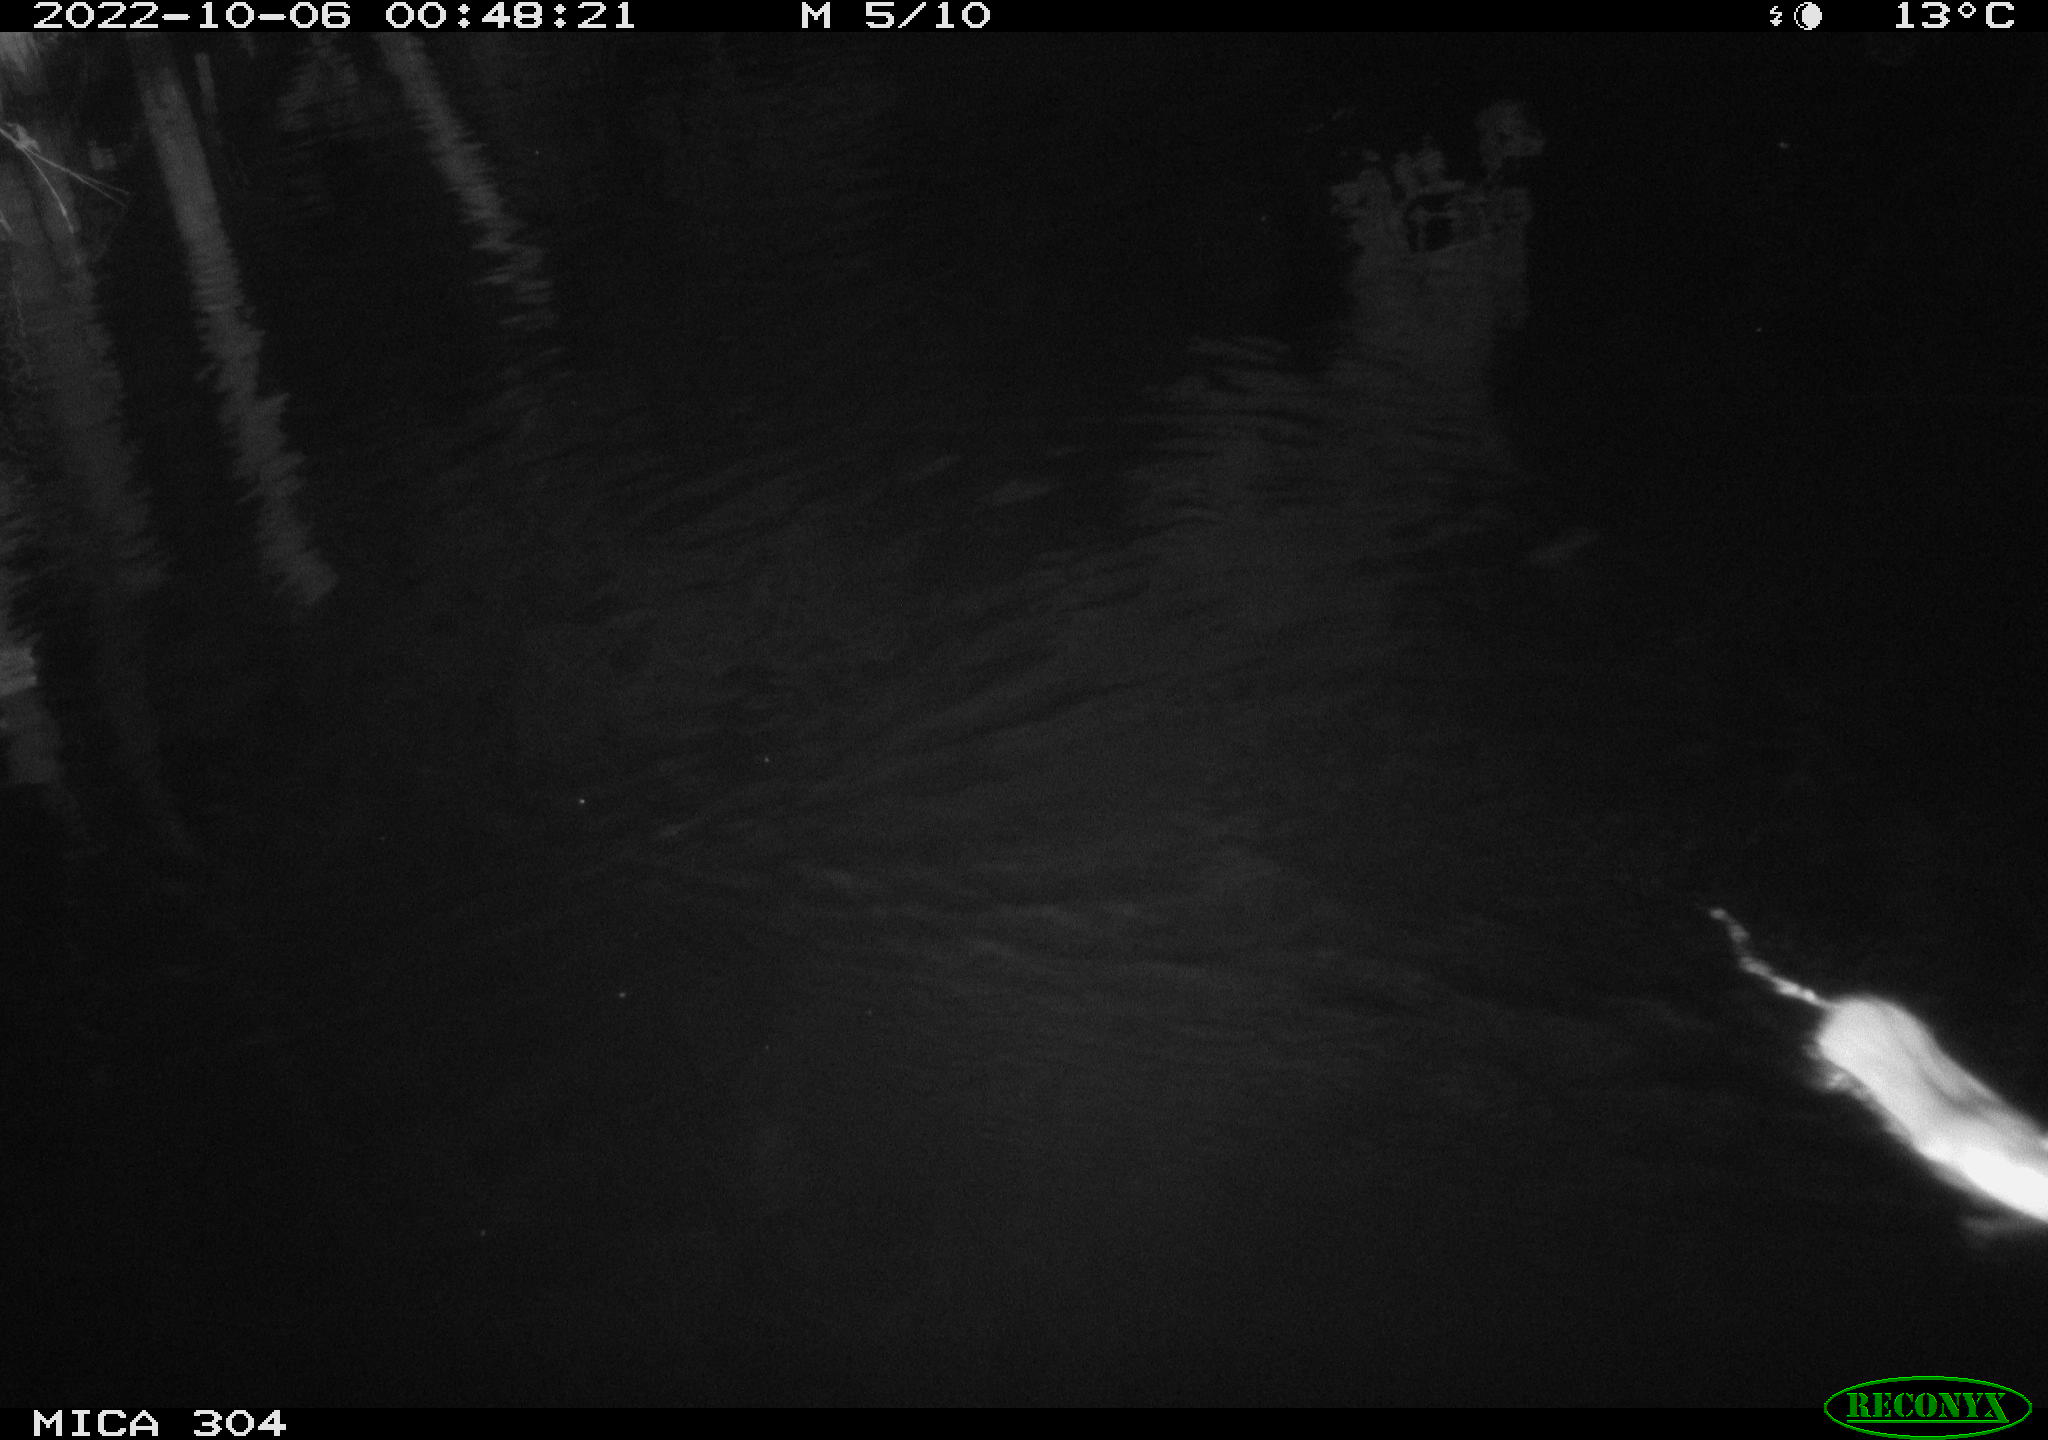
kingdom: Animalia
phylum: Chordata
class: Mammalia
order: Rodentia
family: Muridae
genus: Rattus
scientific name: Rattus norvegicus
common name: Brown rat
